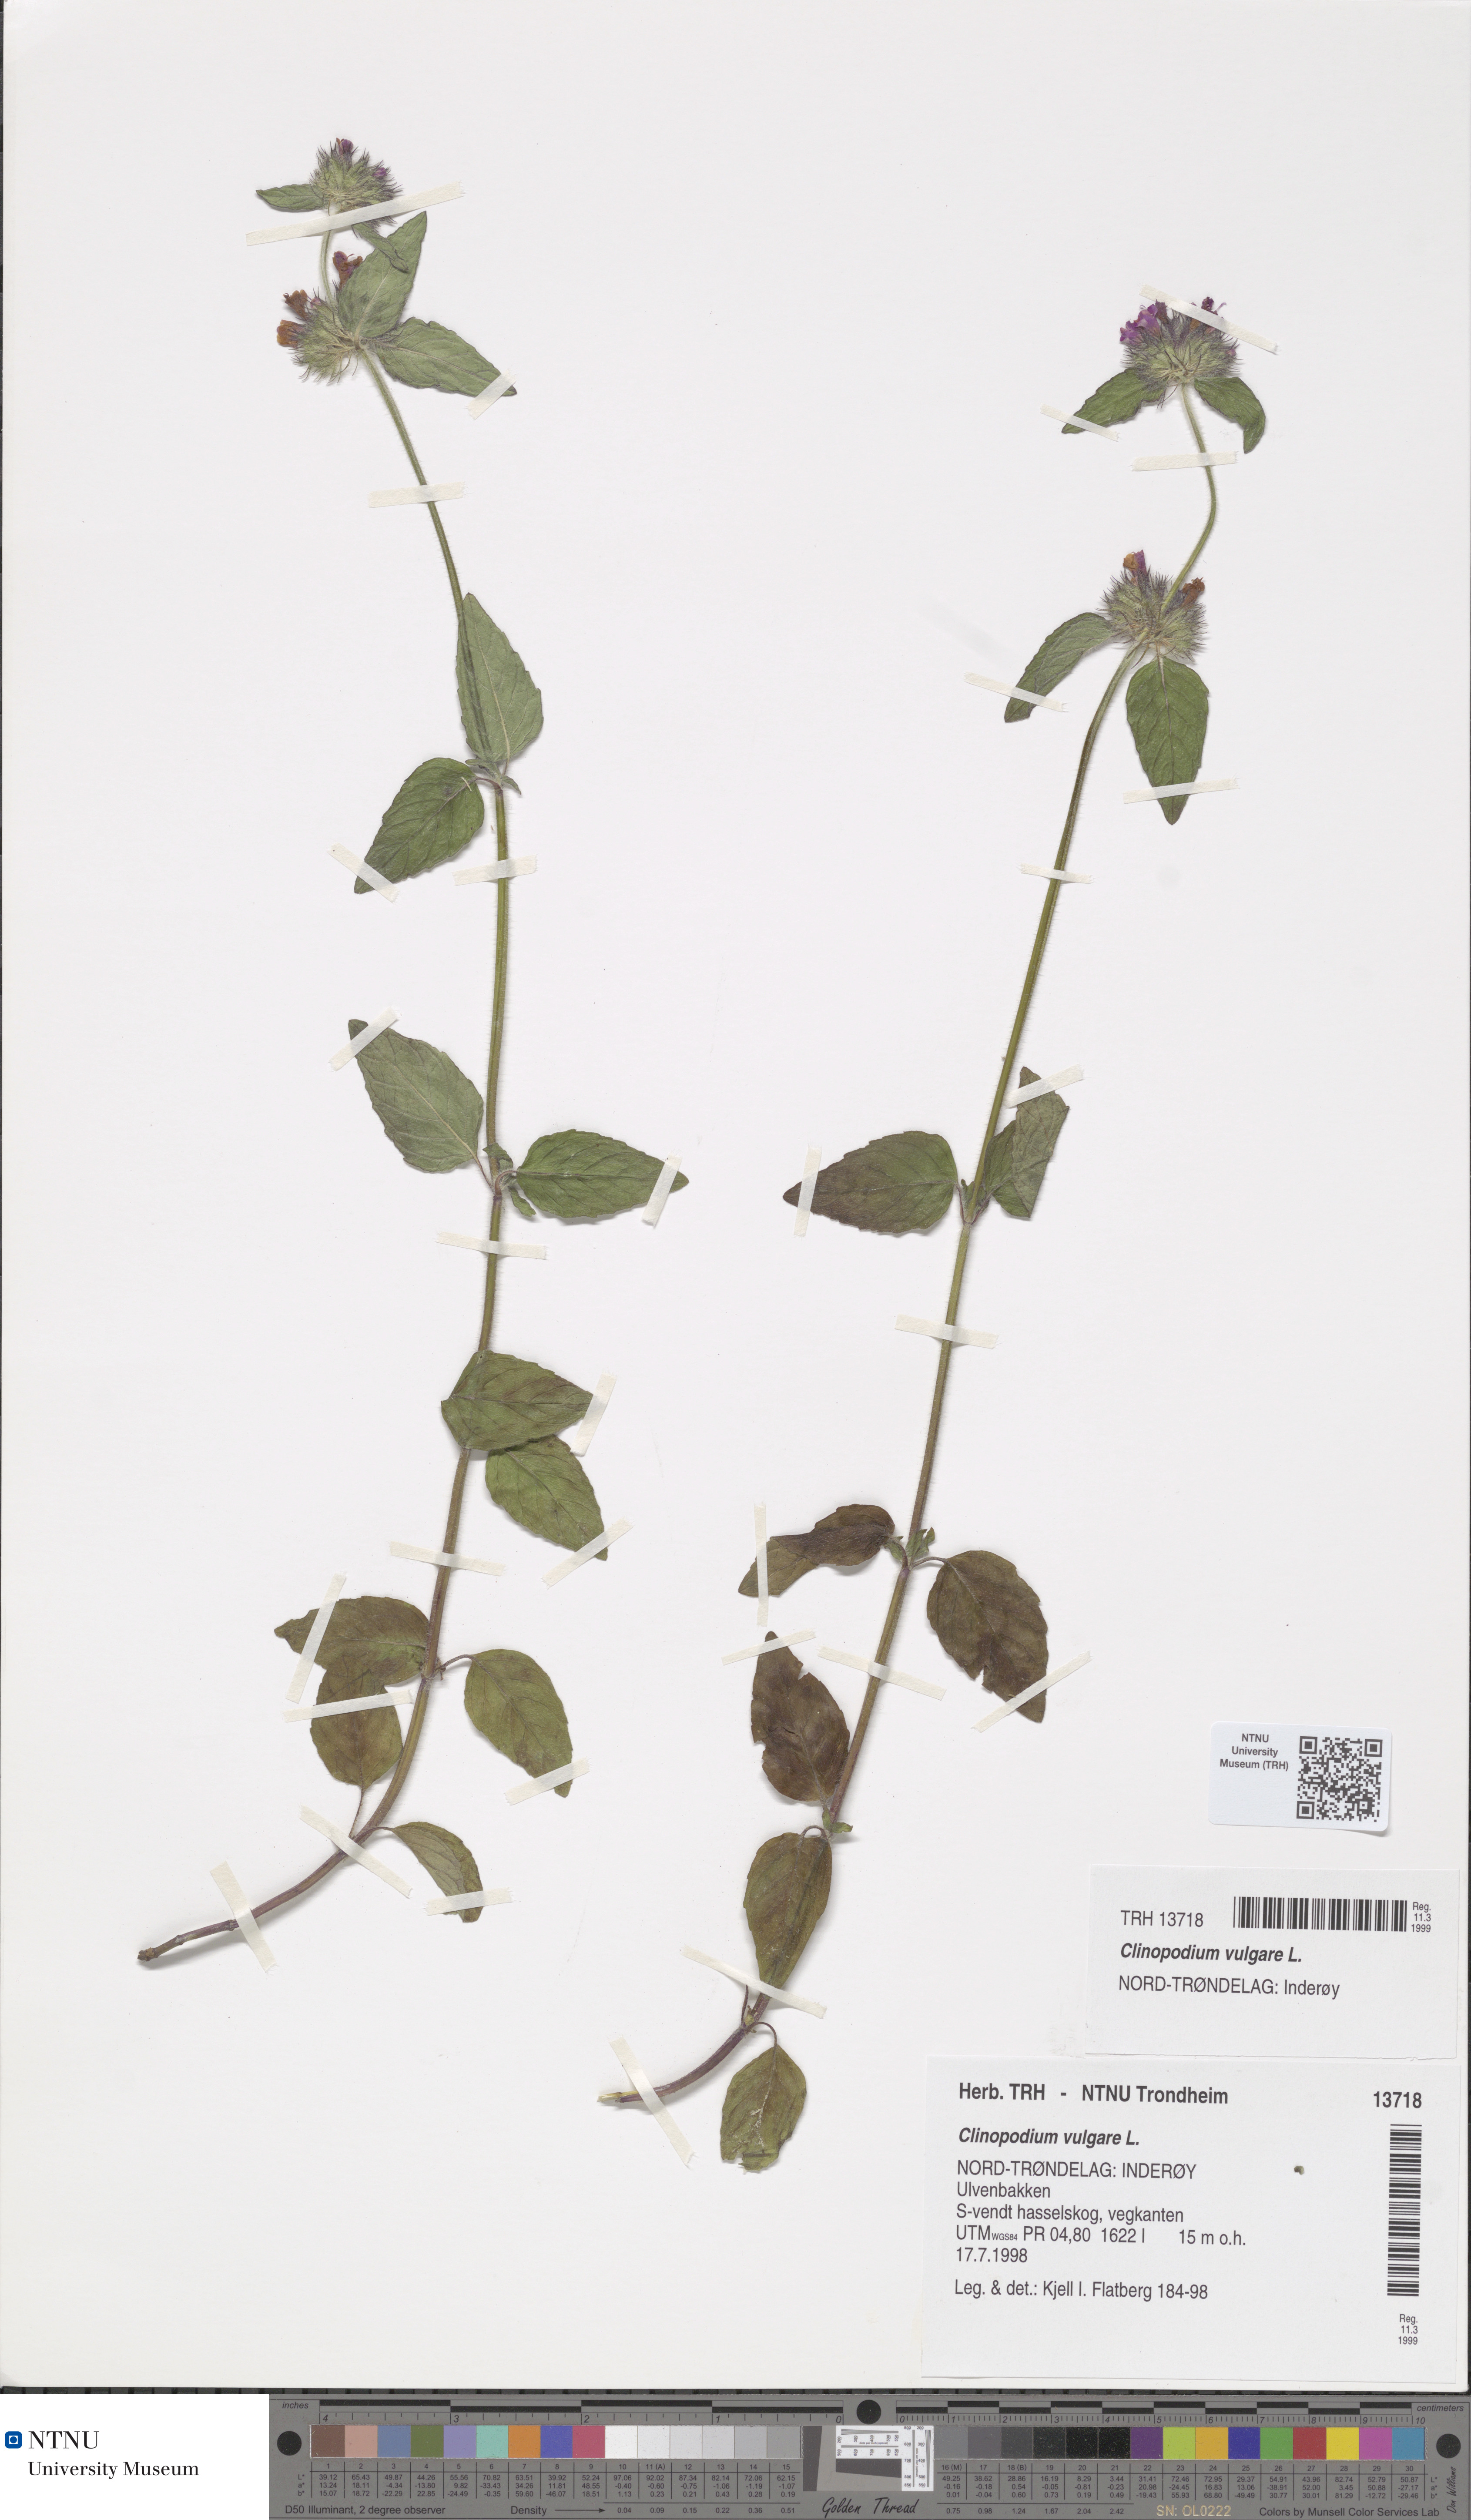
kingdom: Plantae
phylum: Tracheophyta
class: Magnoliopsida
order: Lamiales
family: Lamiaceae
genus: Clinopodium
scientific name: Clinopodium vulgare
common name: Wild basil
